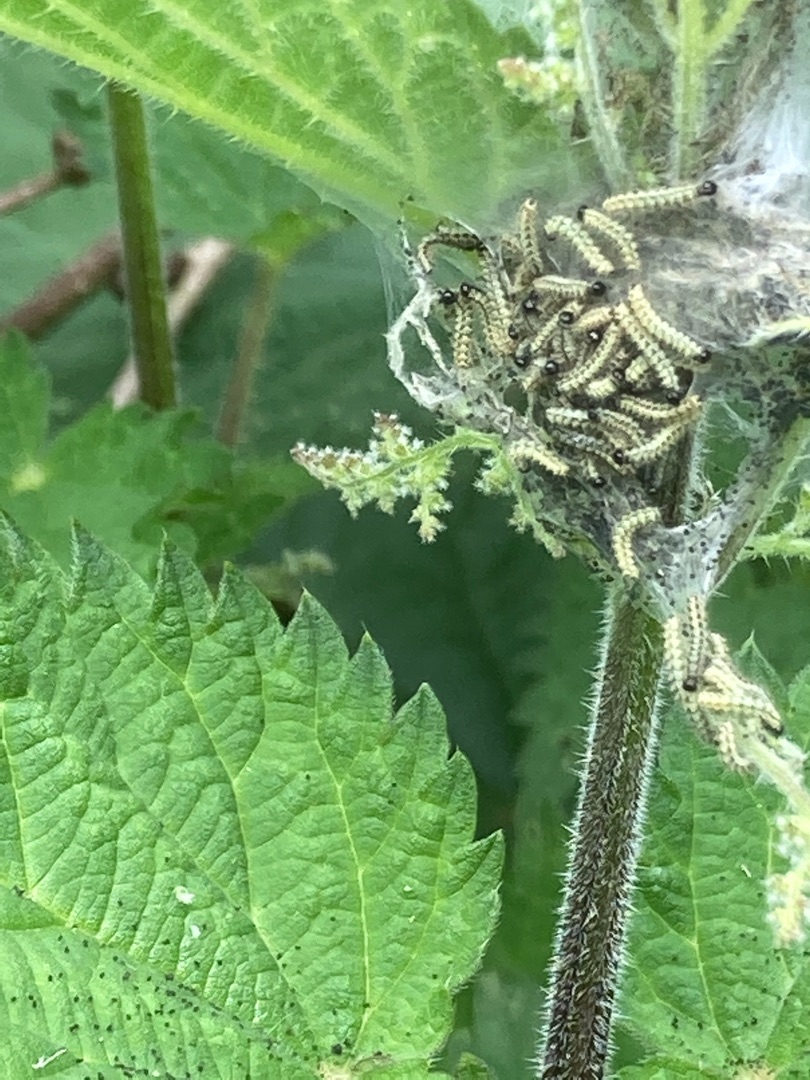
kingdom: Animalia
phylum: Arthropoda
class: Insecta
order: Lepidoptera
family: Nymphalidae
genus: Aglais
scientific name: Aglais urticae
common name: Nældens takvinge
